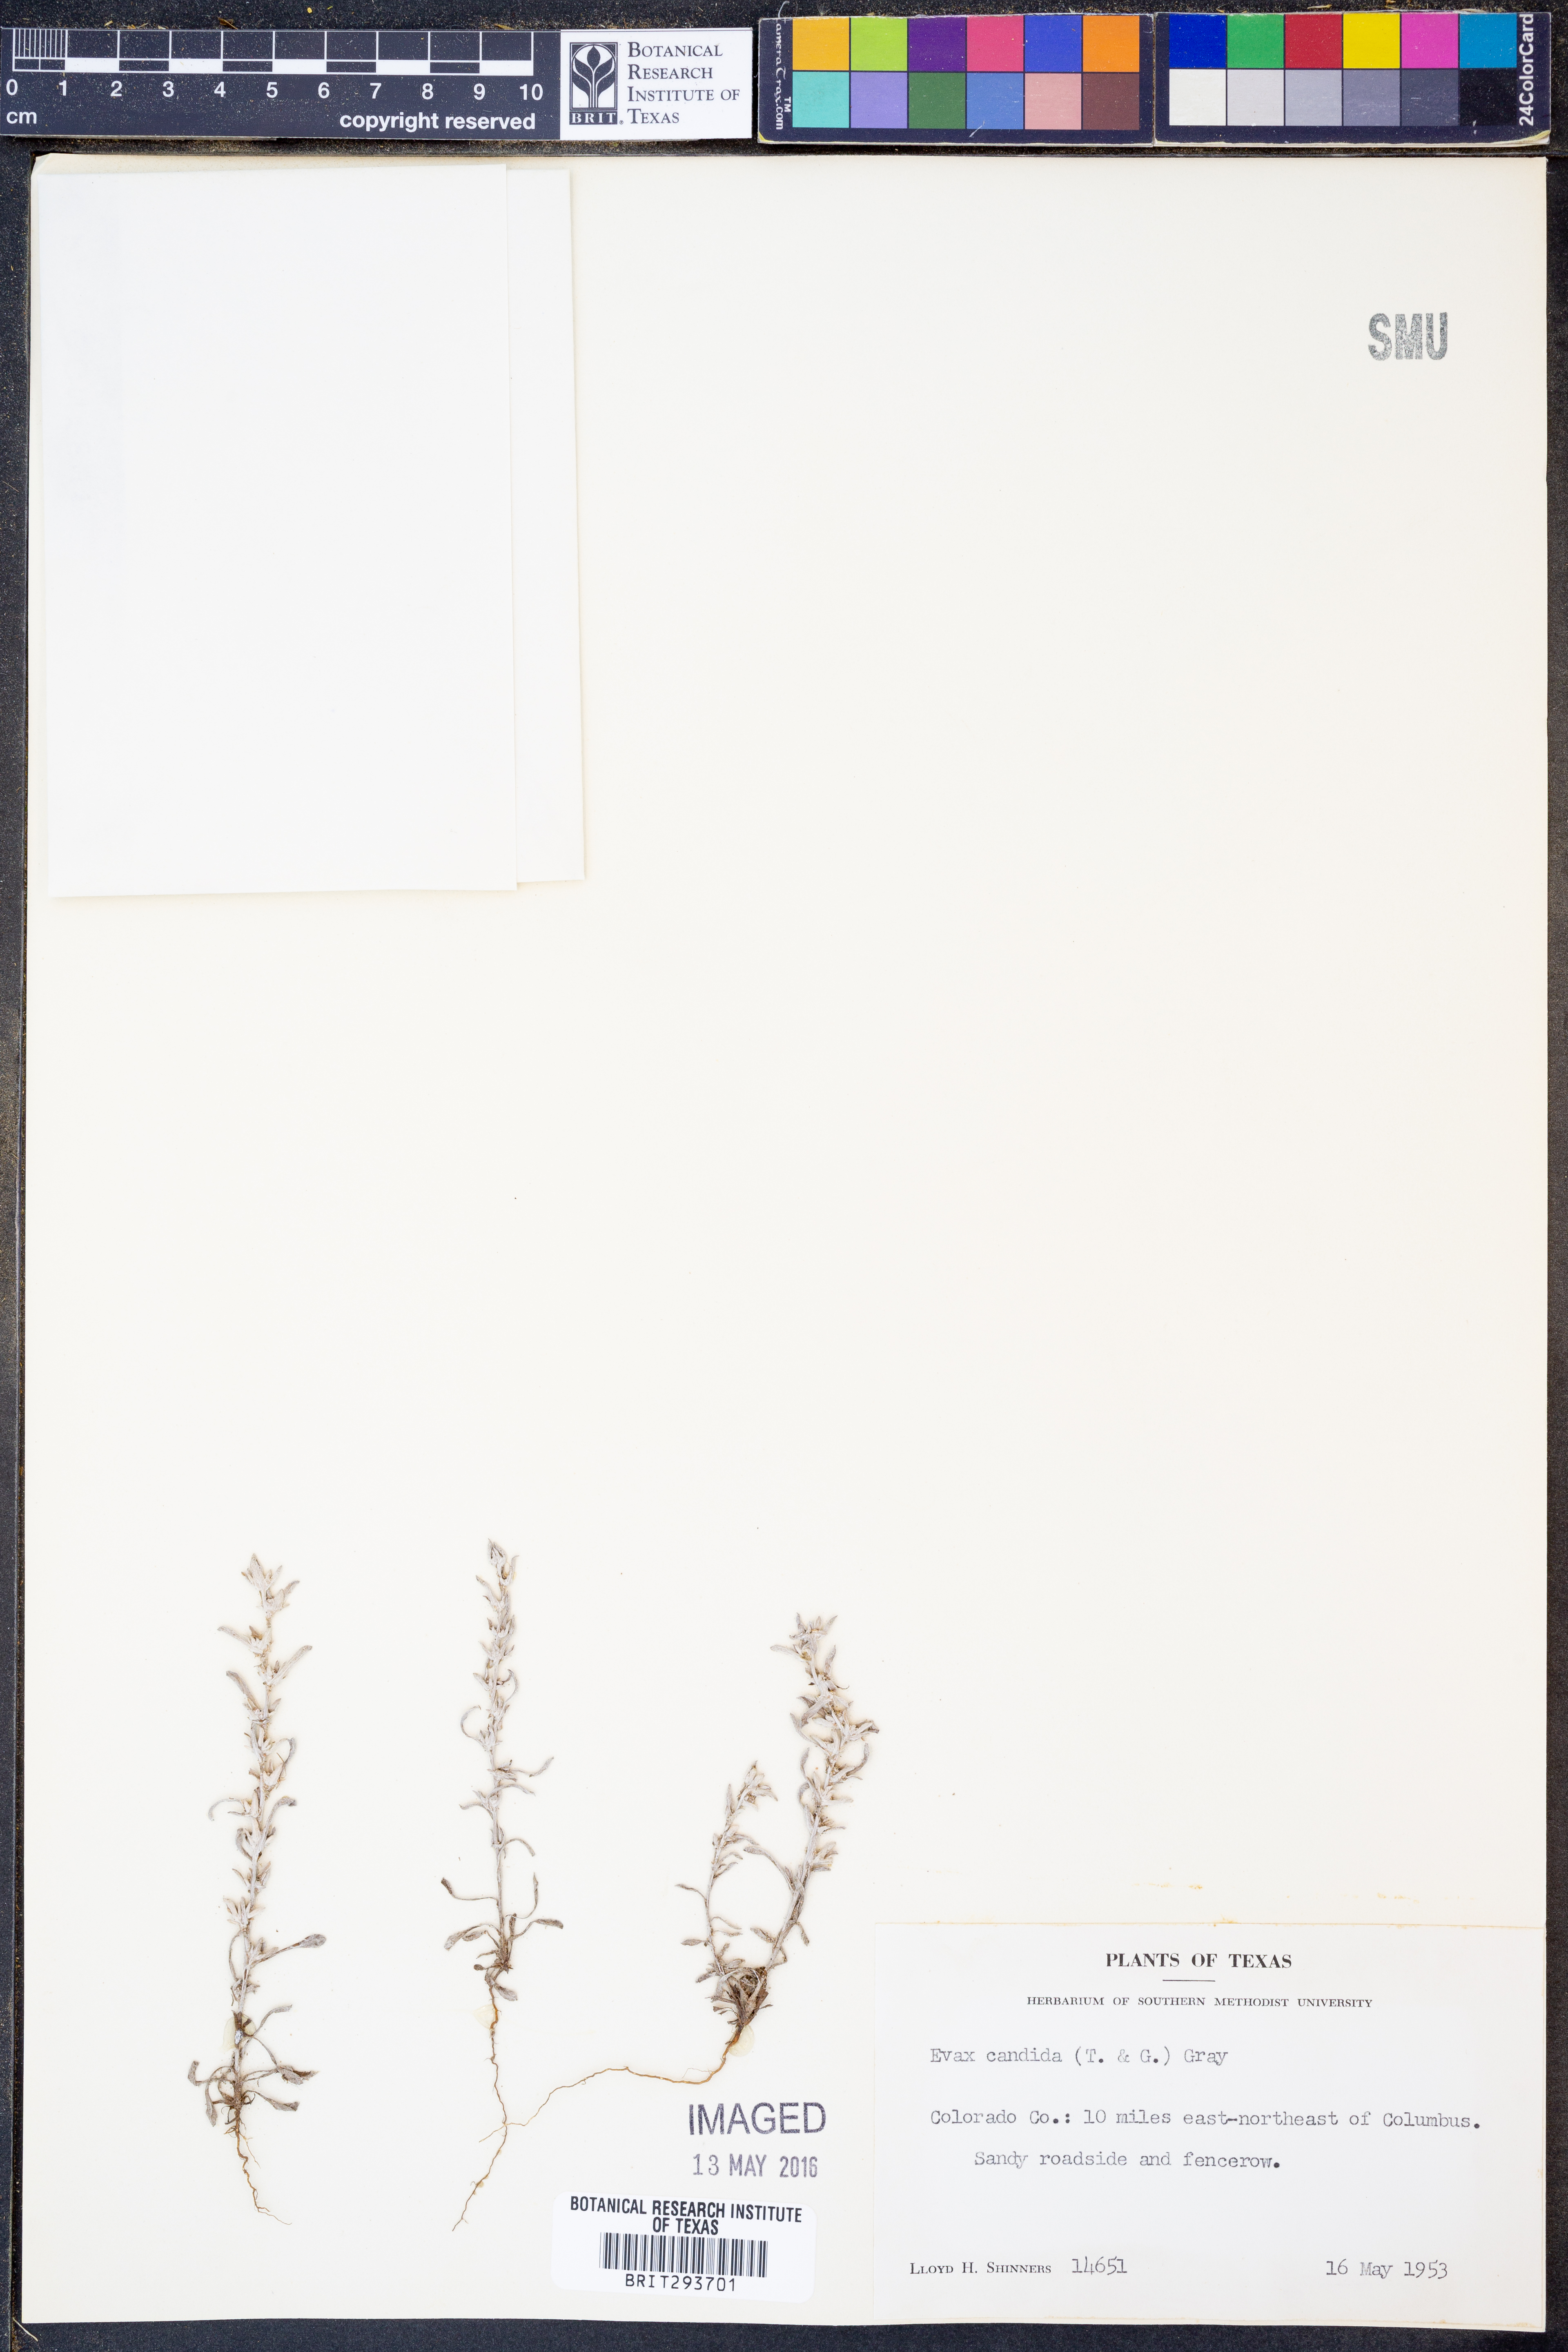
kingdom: Plantae
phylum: Tracheophyta
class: Magnoliopsida
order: Asterales
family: Asteraceae
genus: Diaperia
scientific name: Diaperia candida
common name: Silver rabbit-tobacco
